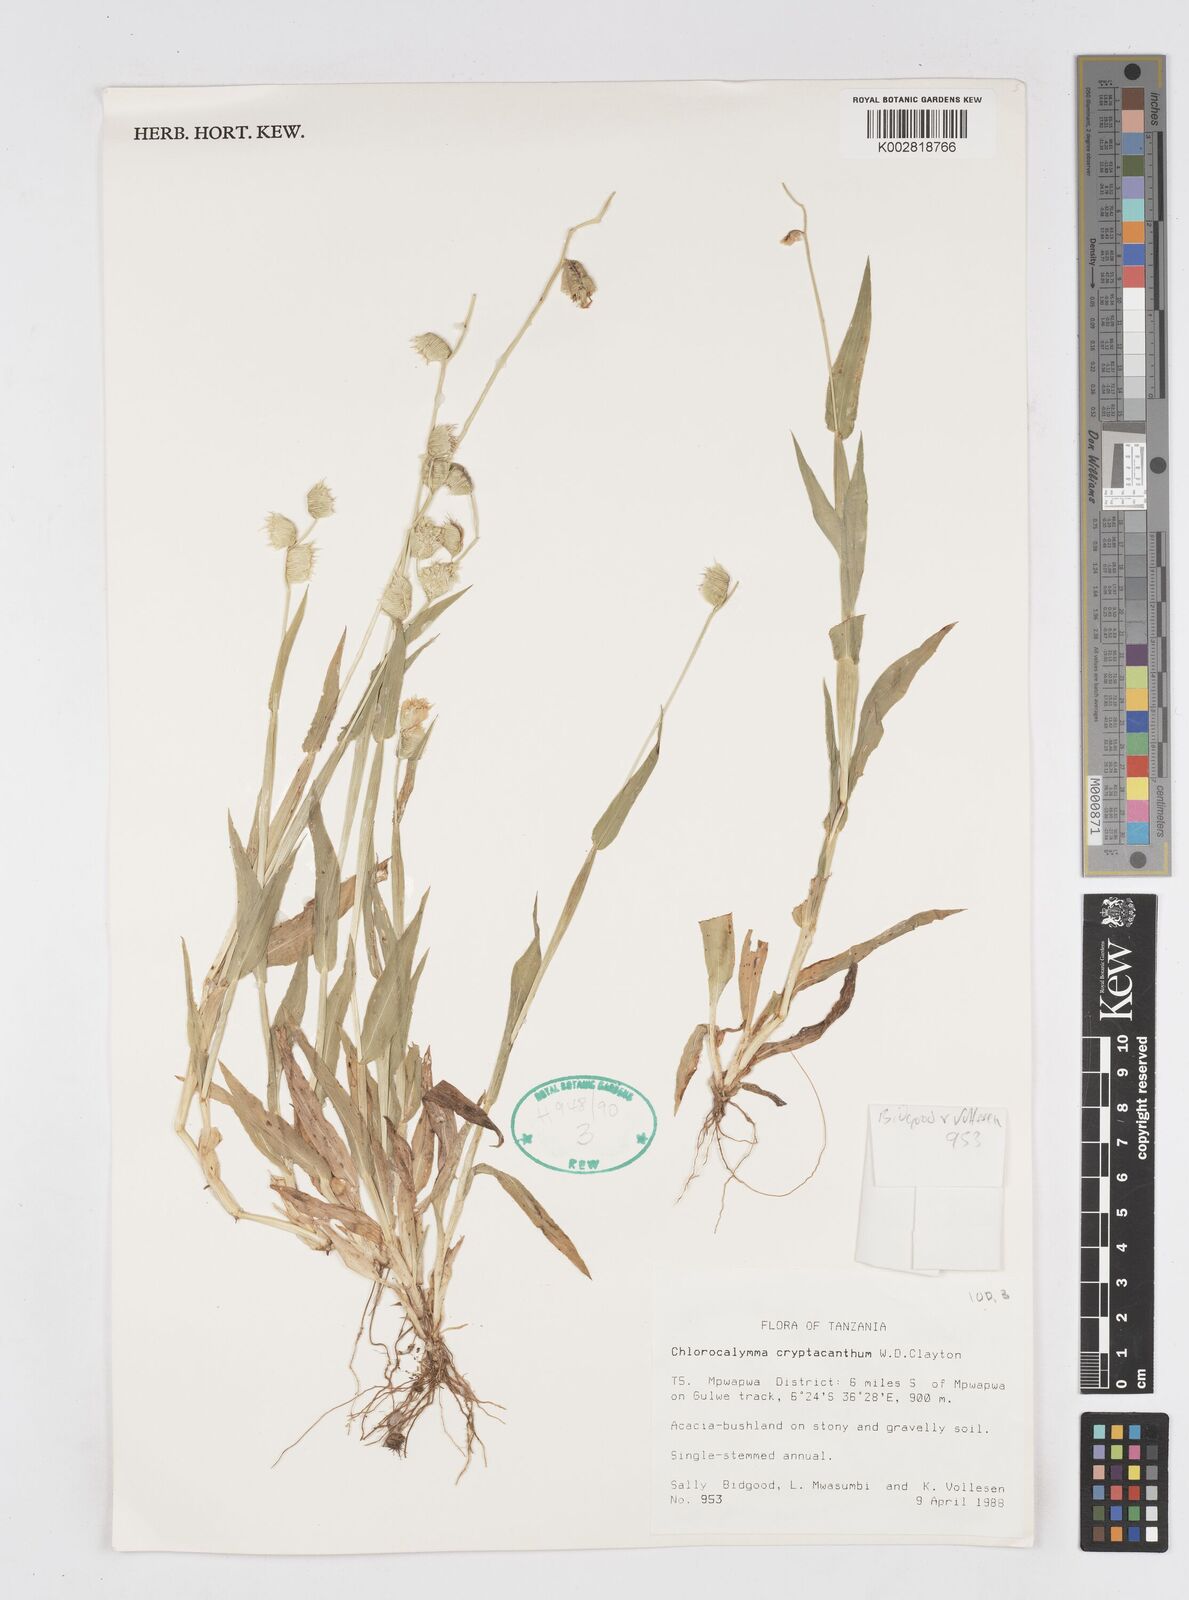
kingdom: Plantae
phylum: Tracheophyta
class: Liliopsida
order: Poales
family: Poaceae
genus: Chlorocalymma
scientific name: Chlorocalymma cryptacanthum
